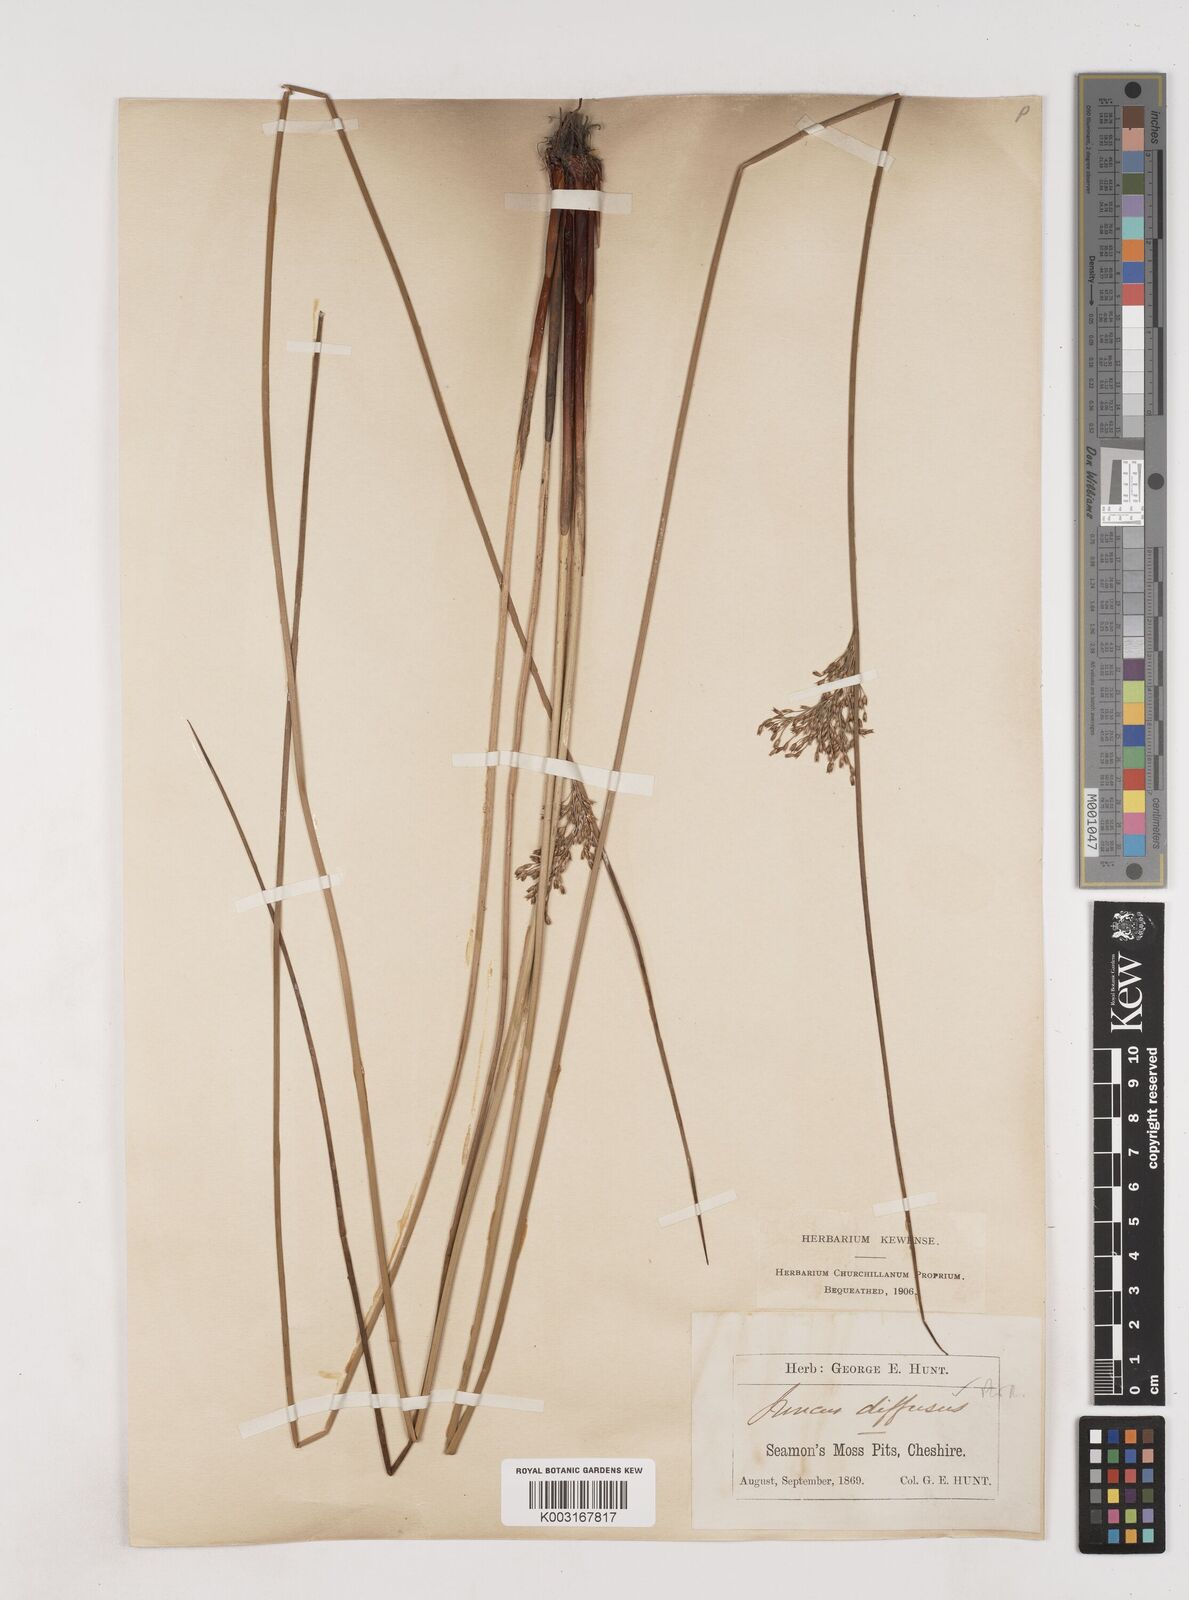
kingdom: Plantae
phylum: Tracheophyta
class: Liliopsida
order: Poales
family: Juncaceae
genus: Juncus
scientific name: Juncus effusus
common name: Soft rush
